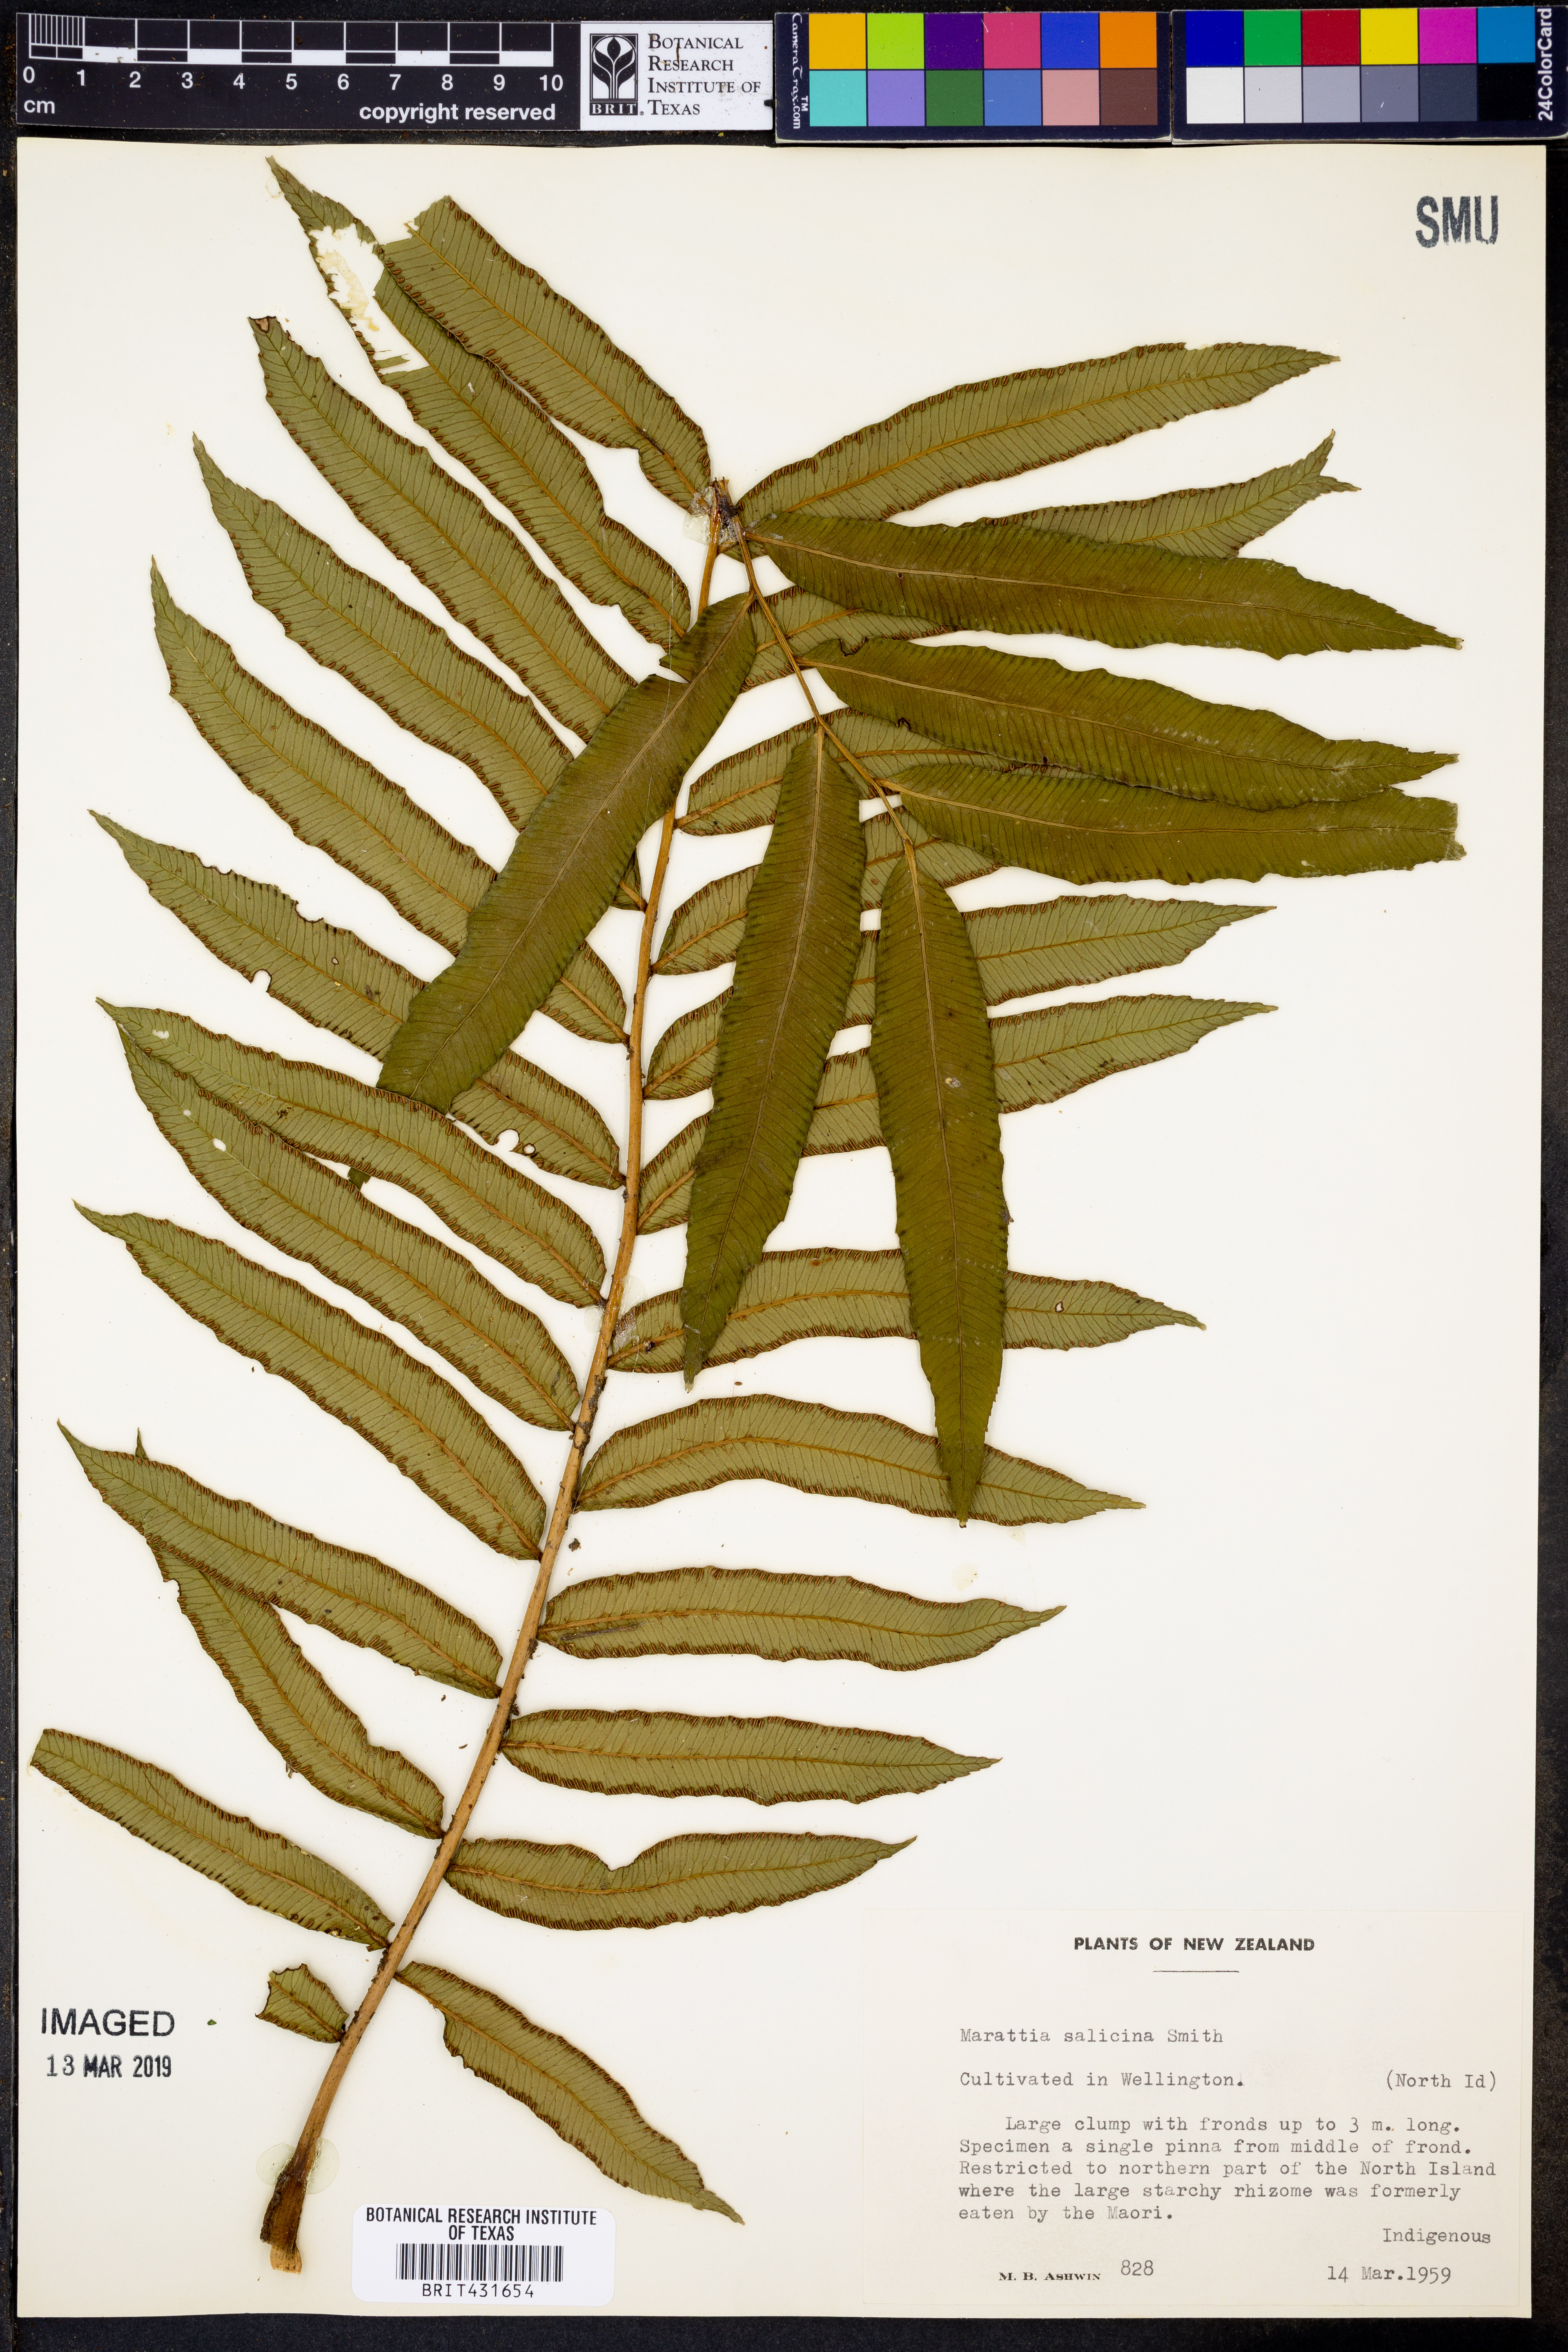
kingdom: Plantae
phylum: Tracheophyta
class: Polypodiopsida
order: Marattiales
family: Marattiaceae
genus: Ptisana
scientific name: Ptisana salicina
